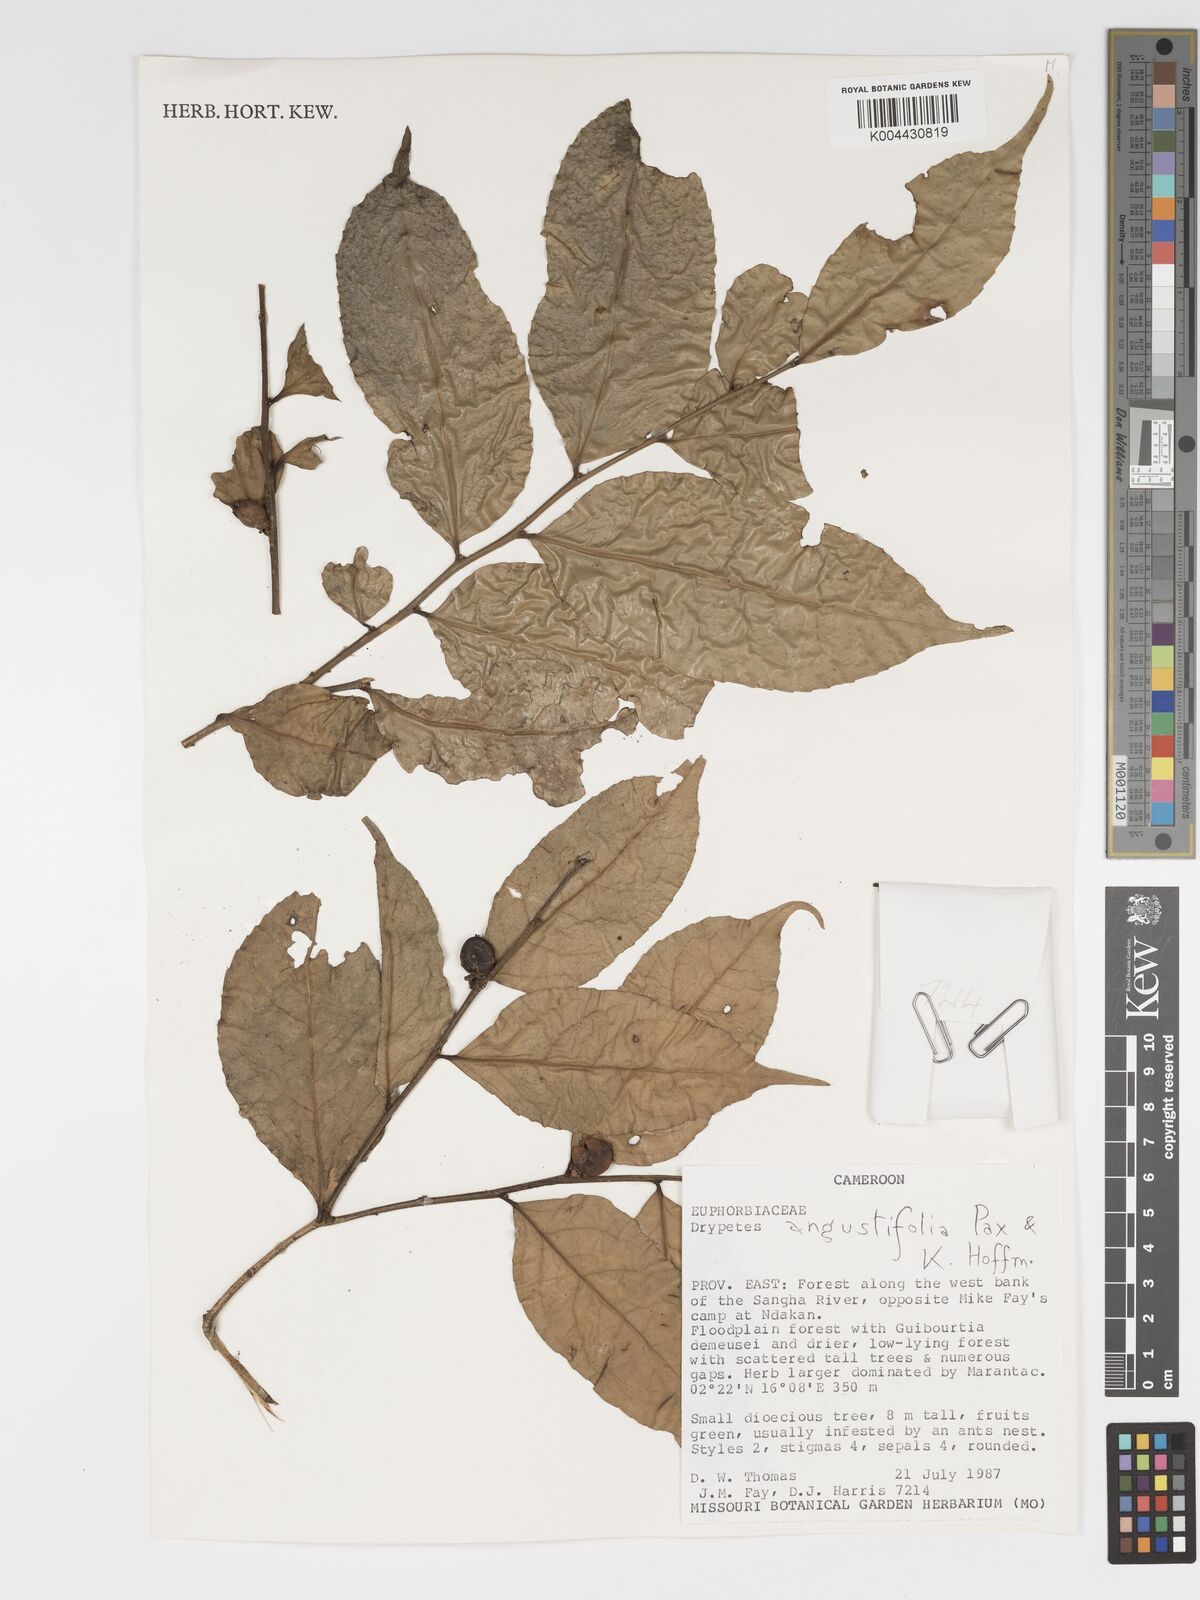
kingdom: Plantae
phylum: Tracheophyta
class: Magnoliopsida
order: Malpighiales
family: Putranjivaceae
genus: Drypetes
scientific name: Drypetes angustifolia
